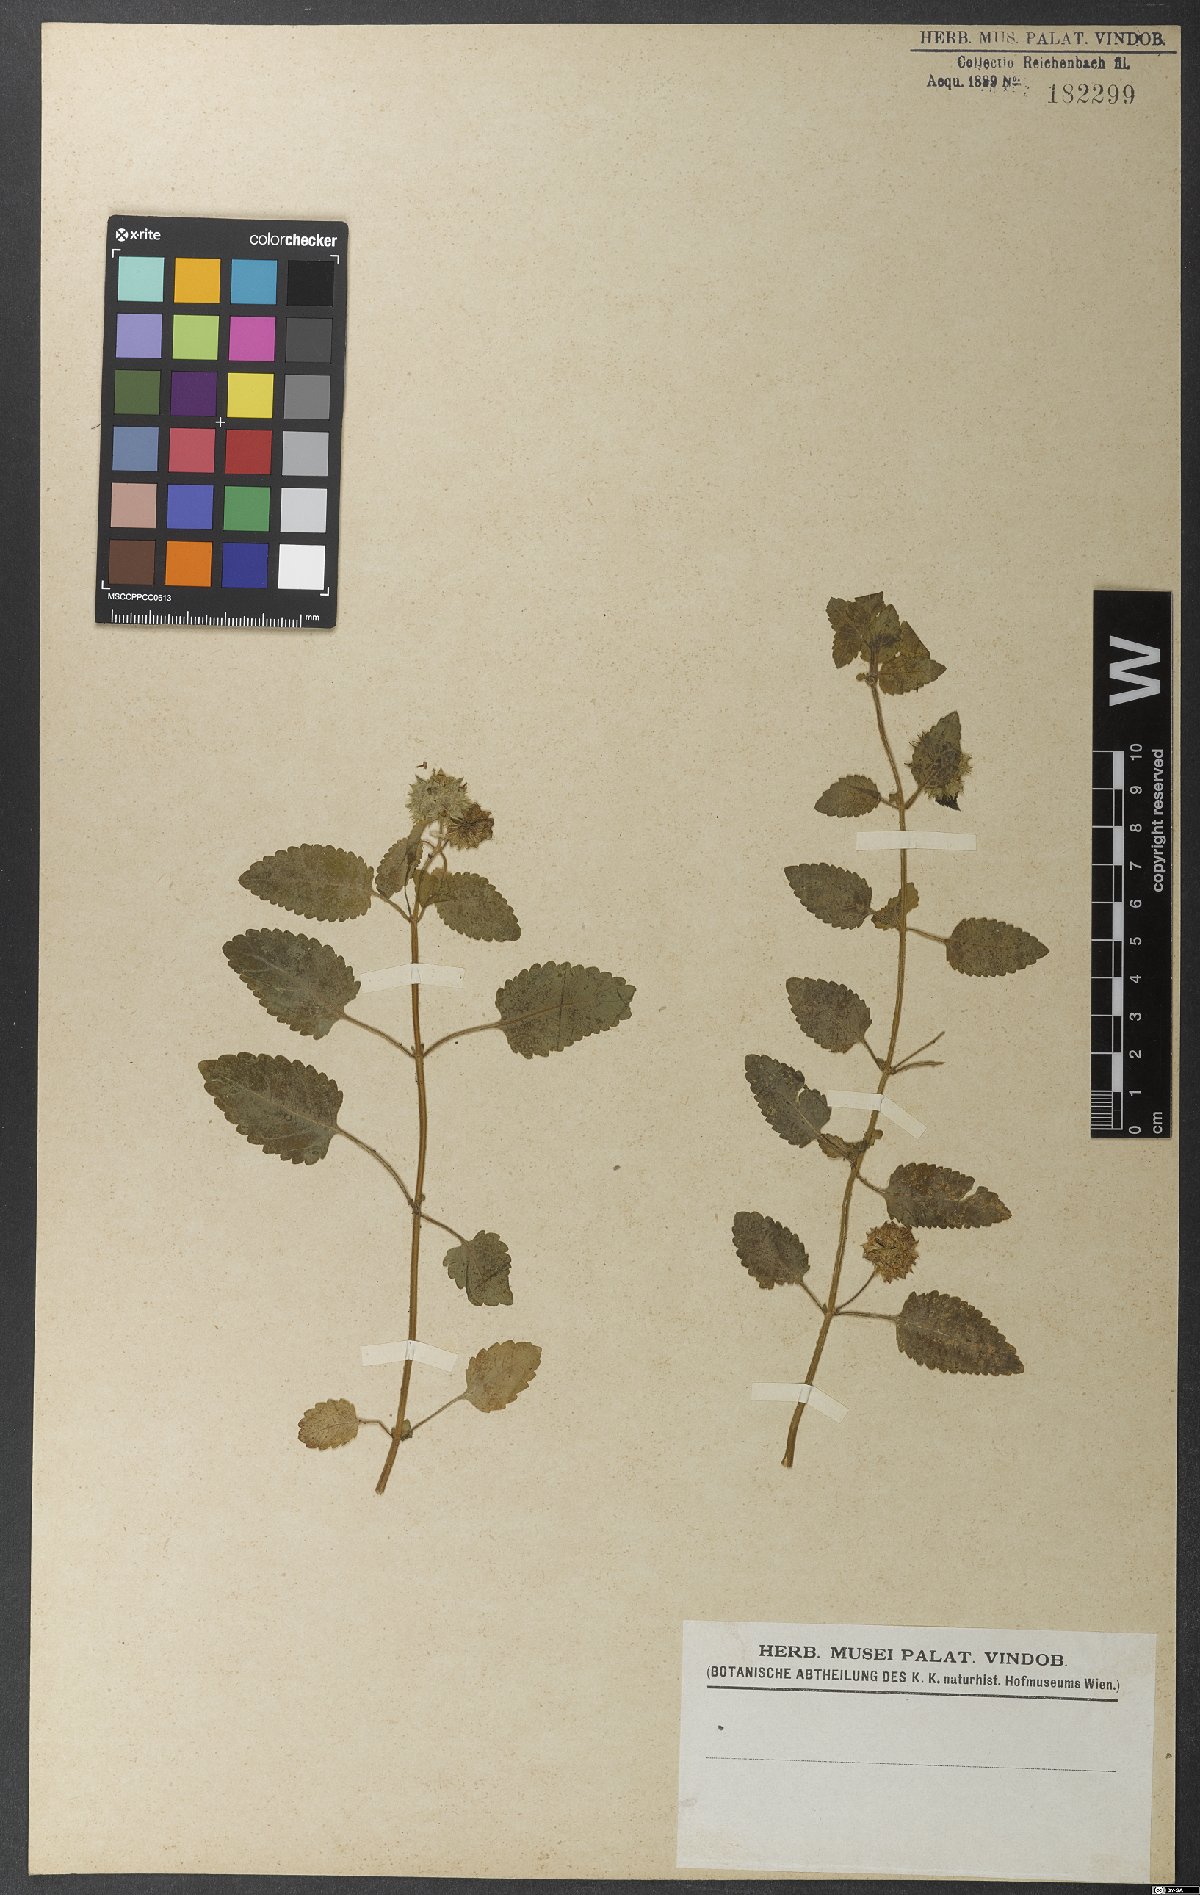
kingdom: Plantae
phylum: Tracheophyta
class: Magnoliopsida
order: Lamiales
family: Lamiaceae
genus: Marsypianthes
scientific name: Marsypianthes chamaedrys
